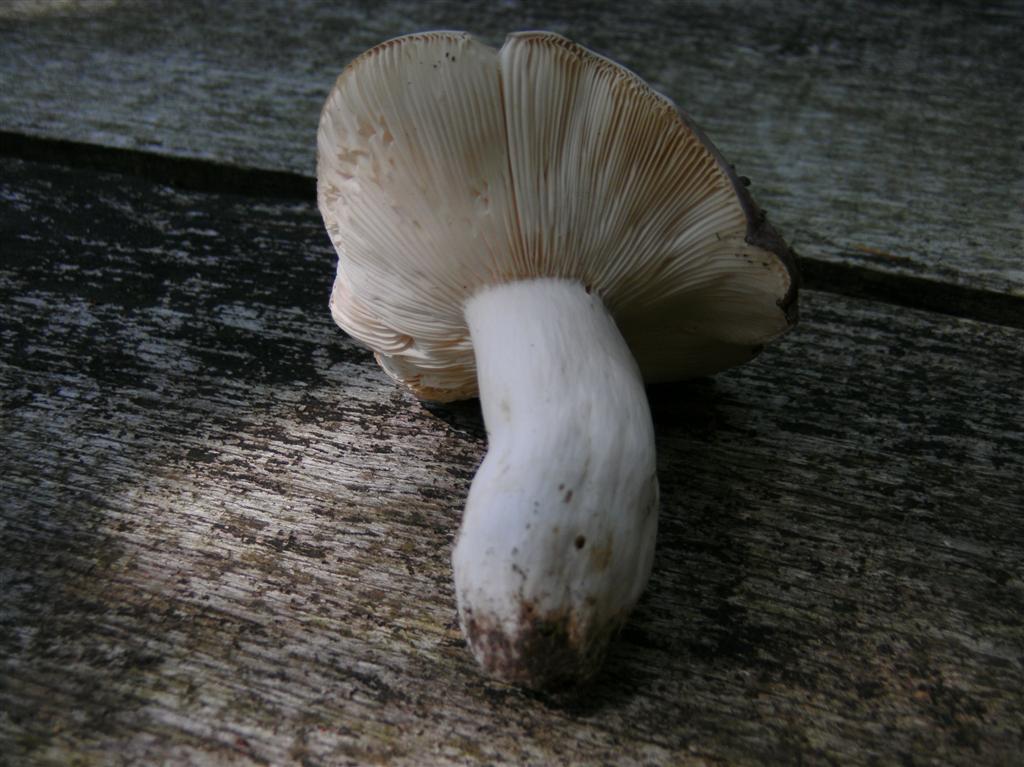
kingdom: Fungi
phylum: Basidiomycota
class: Agaricomycetes
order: Russulales
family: Russulaceae
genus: Russula
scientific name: Russula cyanoxantha
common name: broget skørhat
